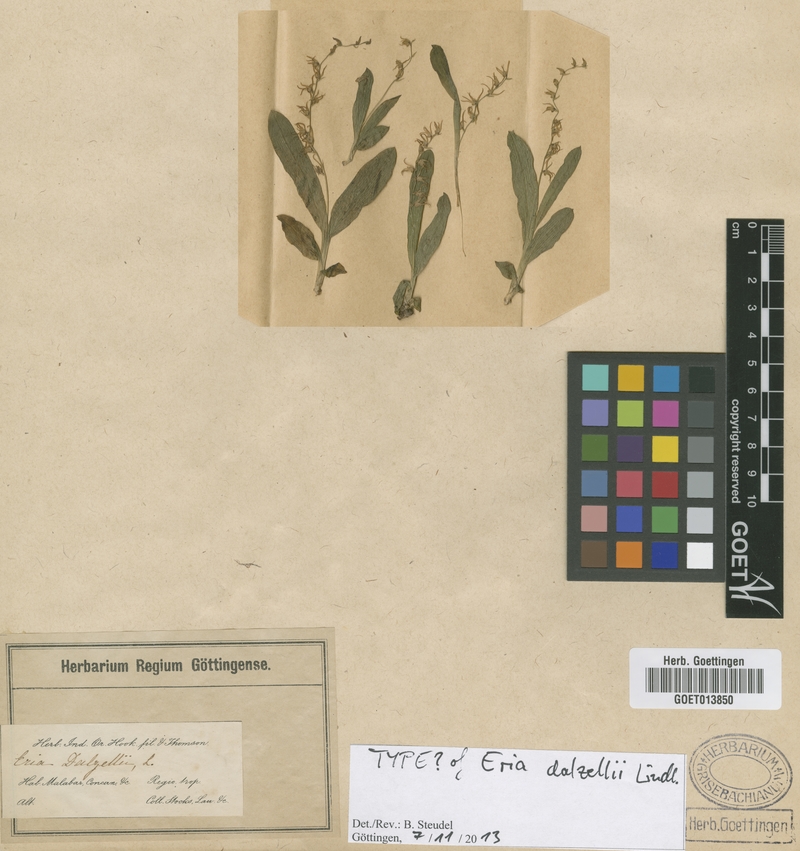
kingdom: Plantae
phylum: Tracheophyta
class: Liliopsida
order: Asparagales
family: Orchidaceae
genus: Porpax
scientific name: Porpax filiformis
